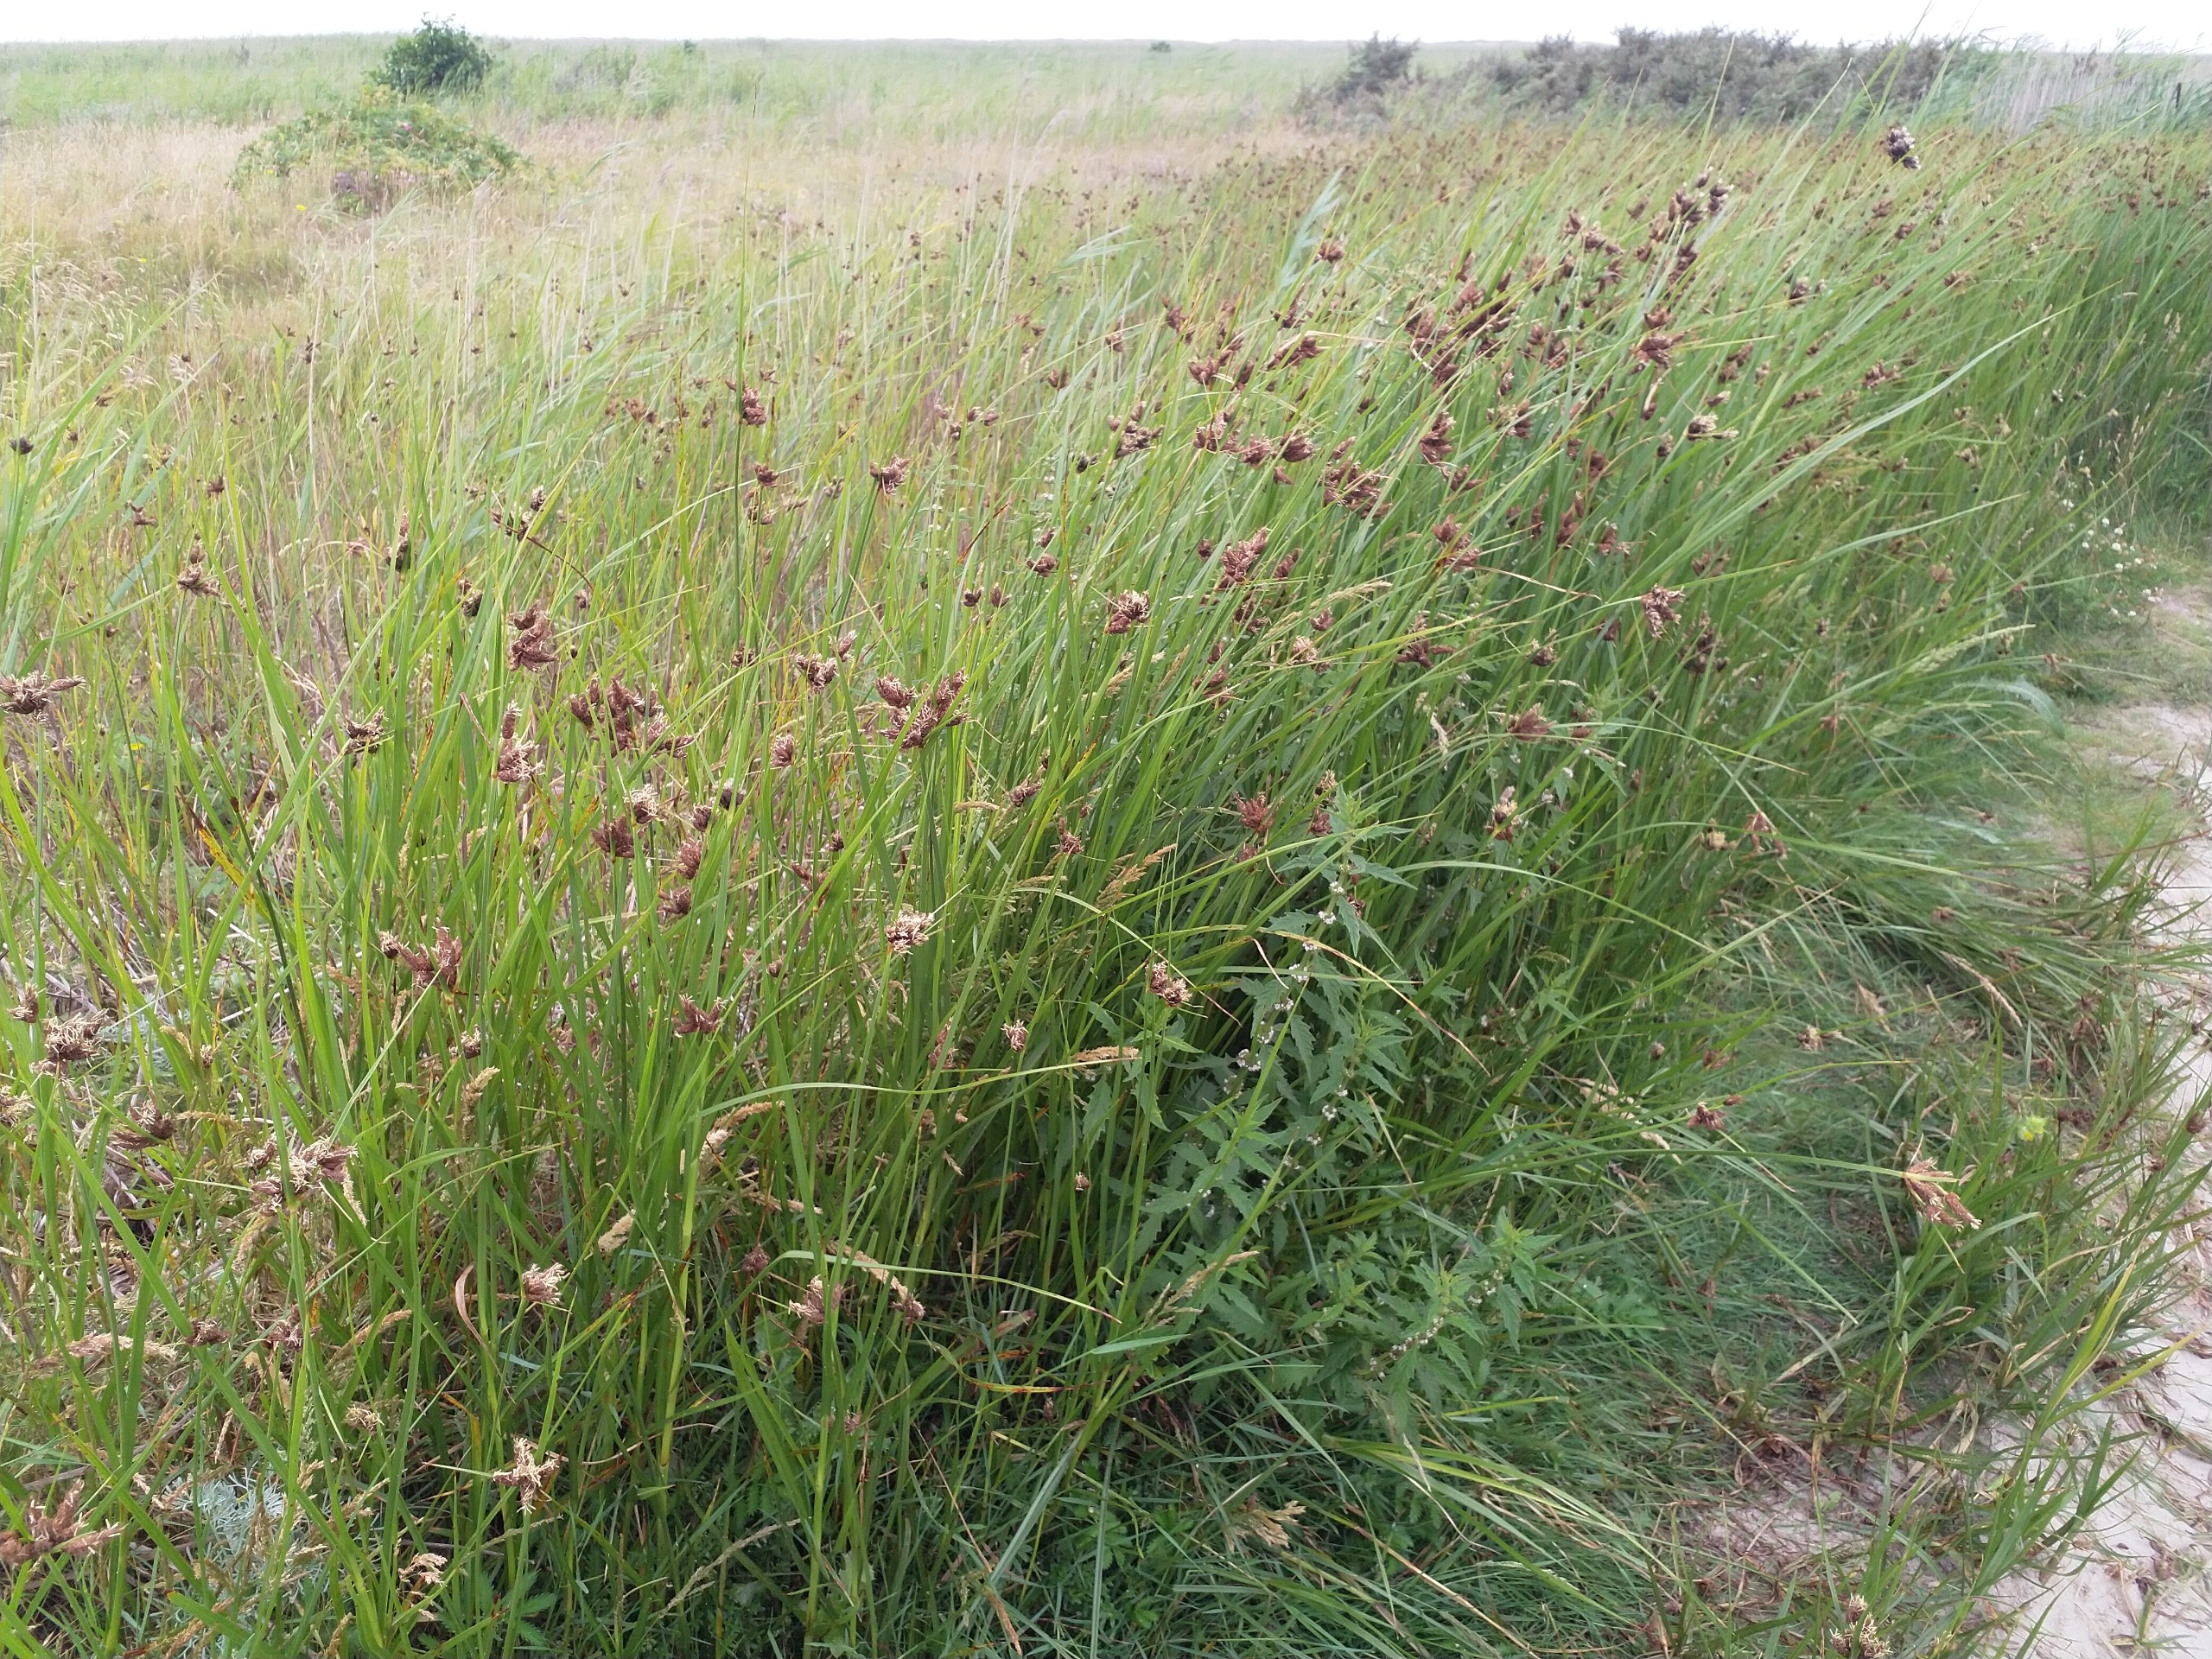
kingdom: Plantae
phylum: Tracheophyta
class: Liliopsida
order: Poales
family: Cyperaceae
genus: Bolboschoenus
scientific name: Bolboschoenus maritimus
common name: Strand-kogleaks
